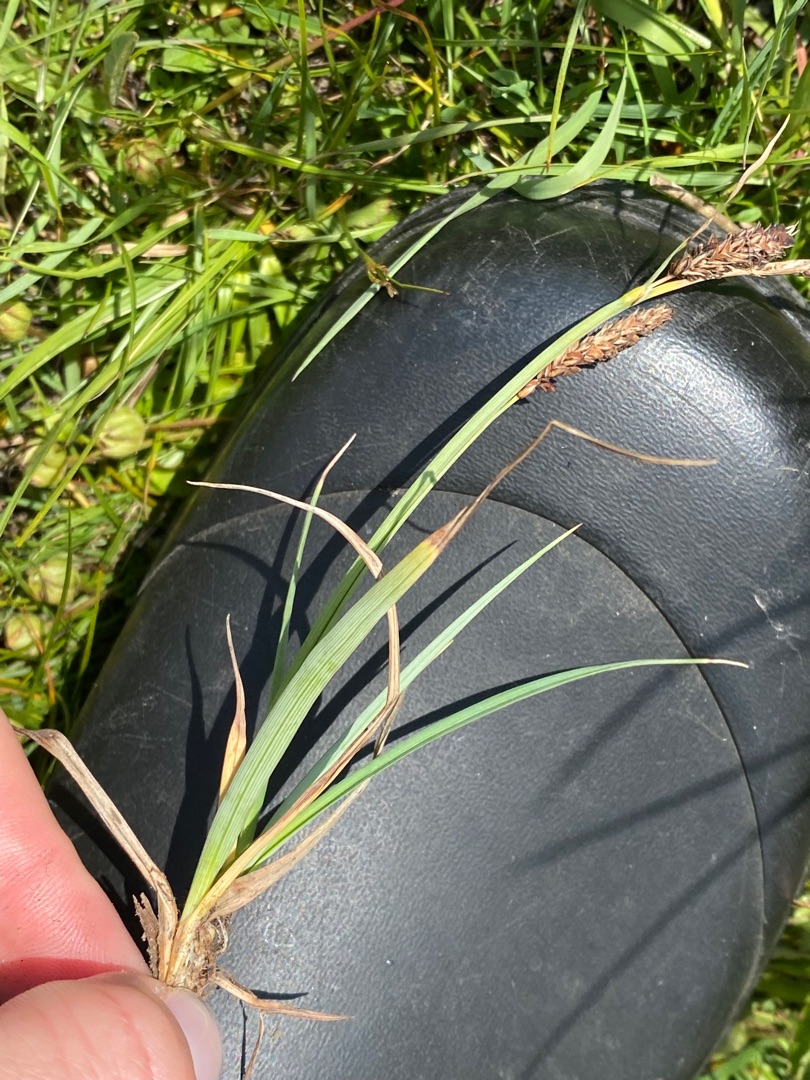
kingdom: Plantae
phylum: Tracheophyta
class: Liliopsida
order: Poales
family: Cyperaceae
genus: Carex
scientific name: Carex flacca
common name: Blågrøn star
